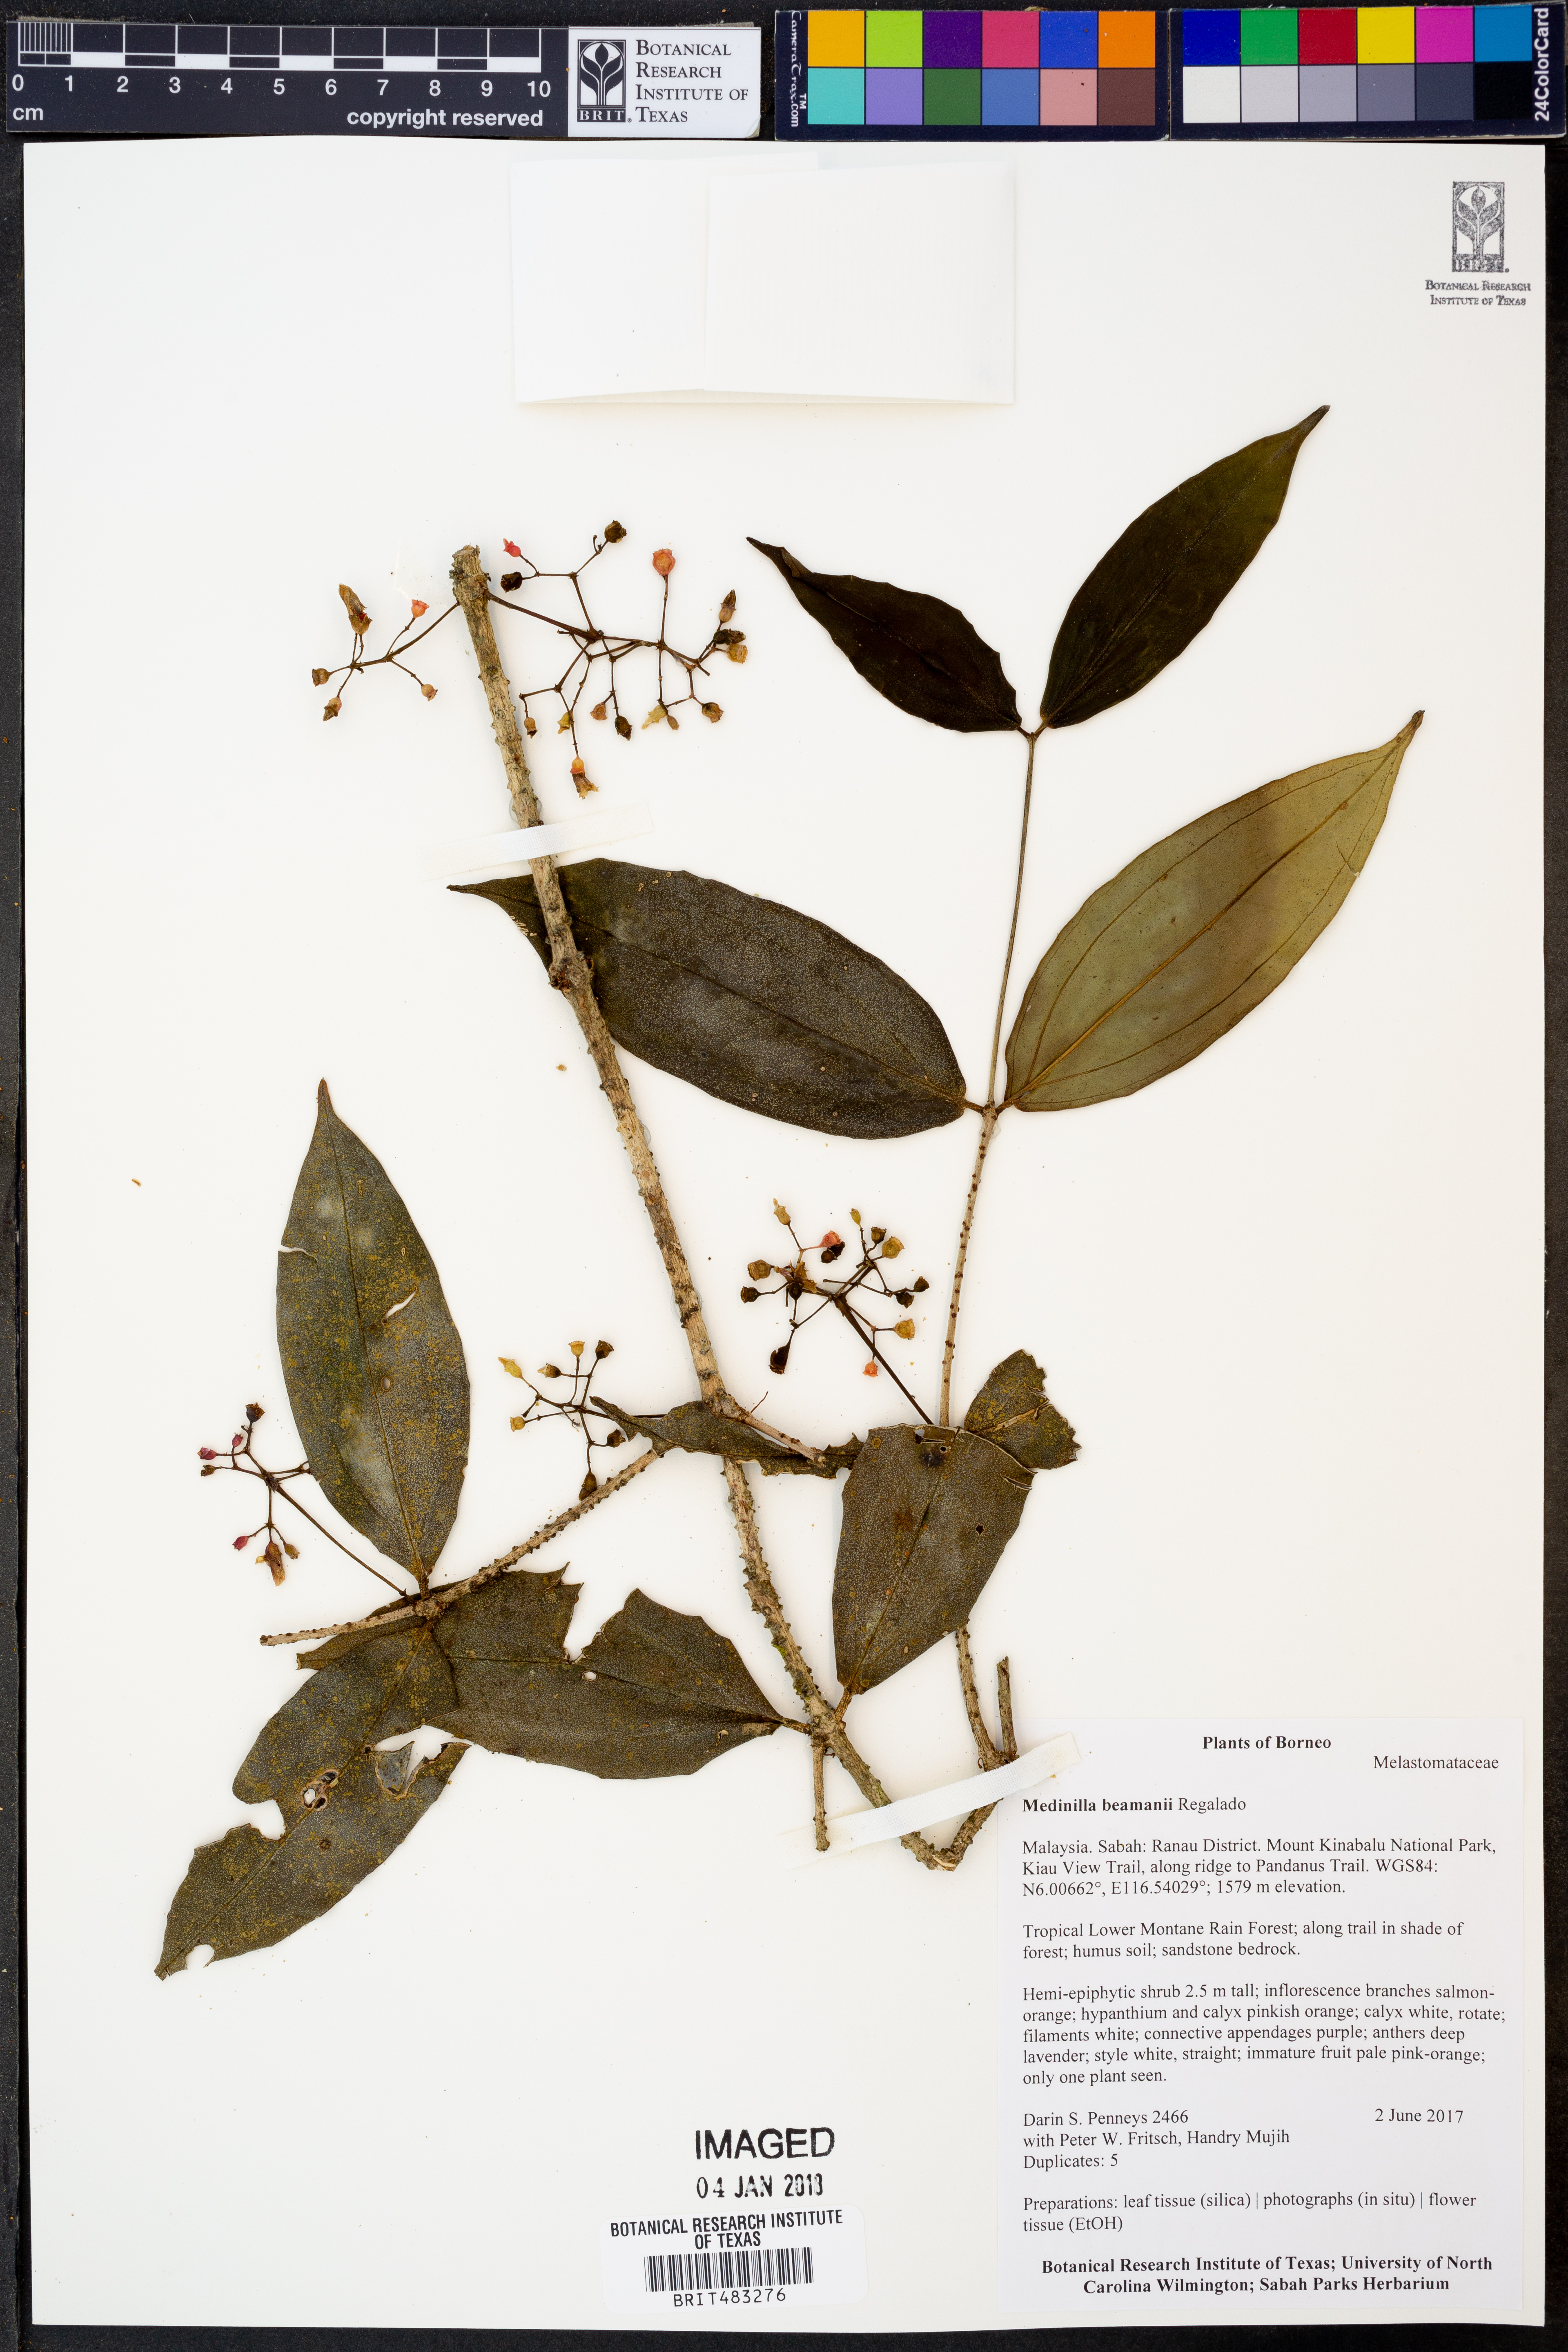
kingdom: Plantae
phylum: Tracheophyta
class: Magnoliopsida
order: Myrtales
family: Melastomataceae
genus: Medinilla
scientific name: Medinilla beamanii
